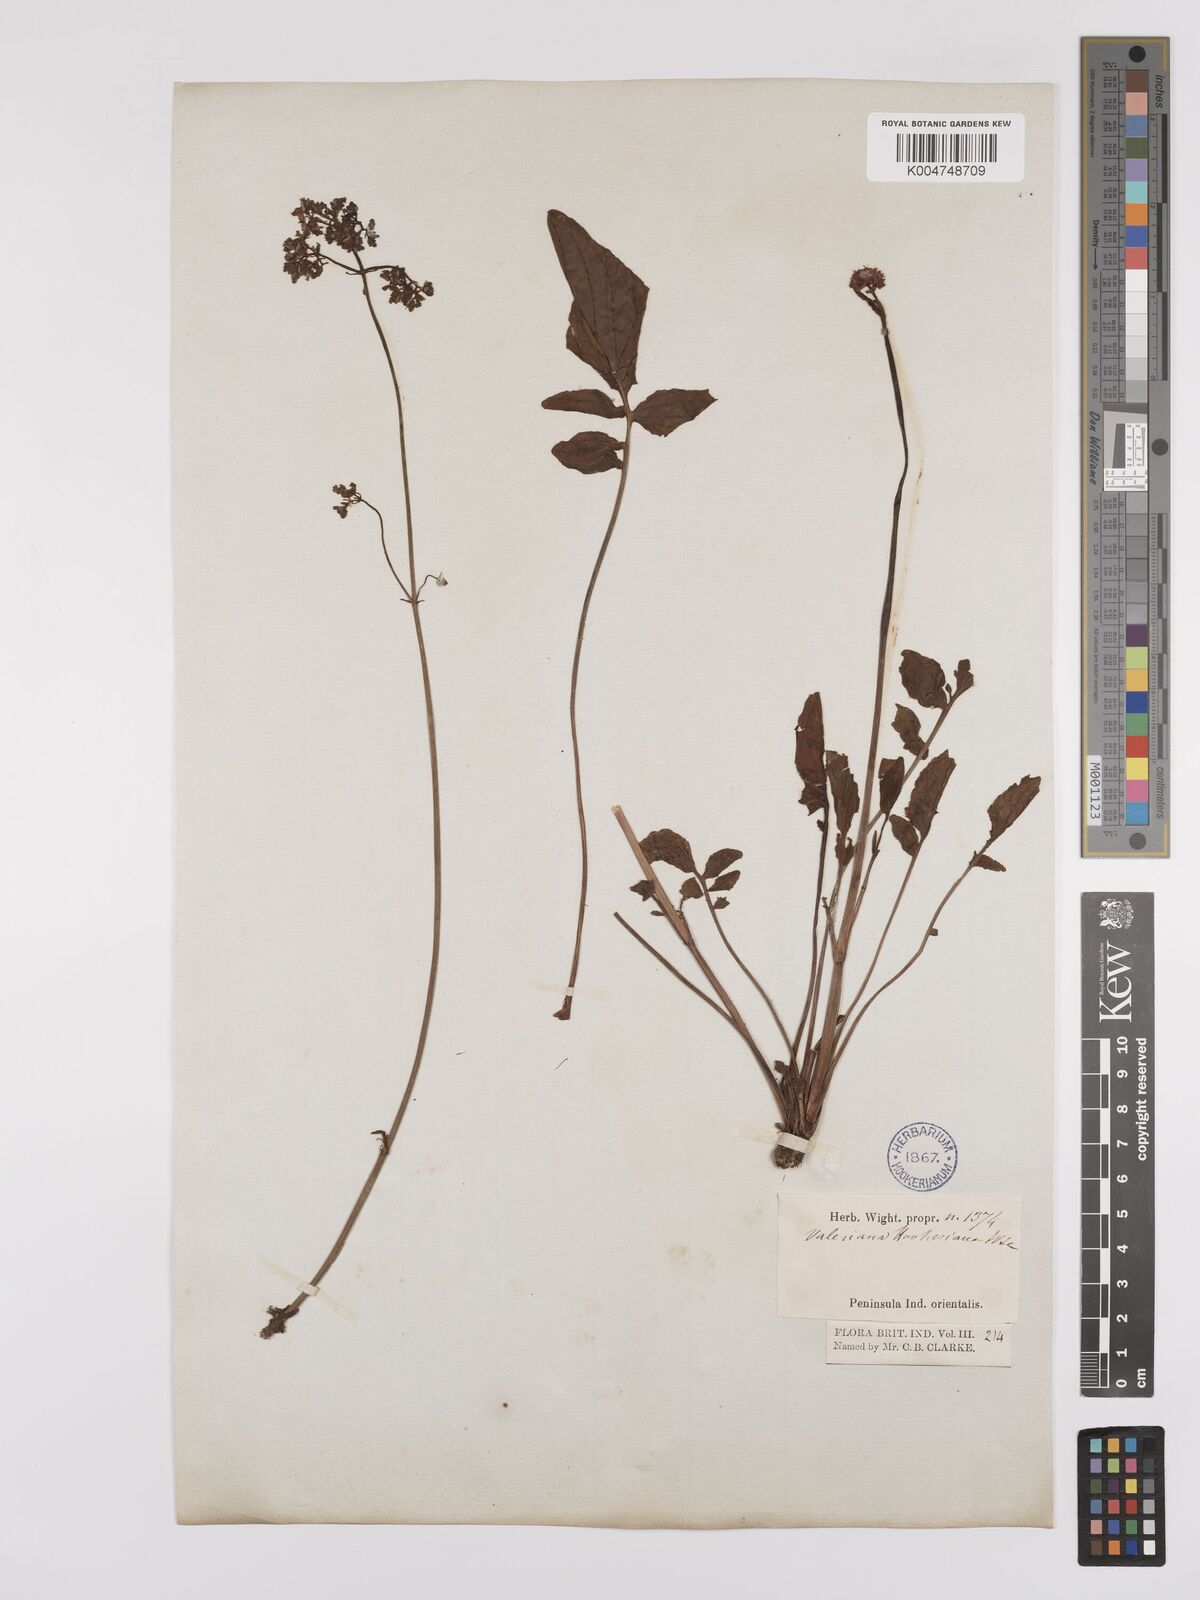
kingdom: Plantae
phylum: Tracheophyta
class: Magnoliopsida
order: Dipsacales
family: Caprifoliaceae
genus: Valeriana
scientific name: Valeriana hardwickei
